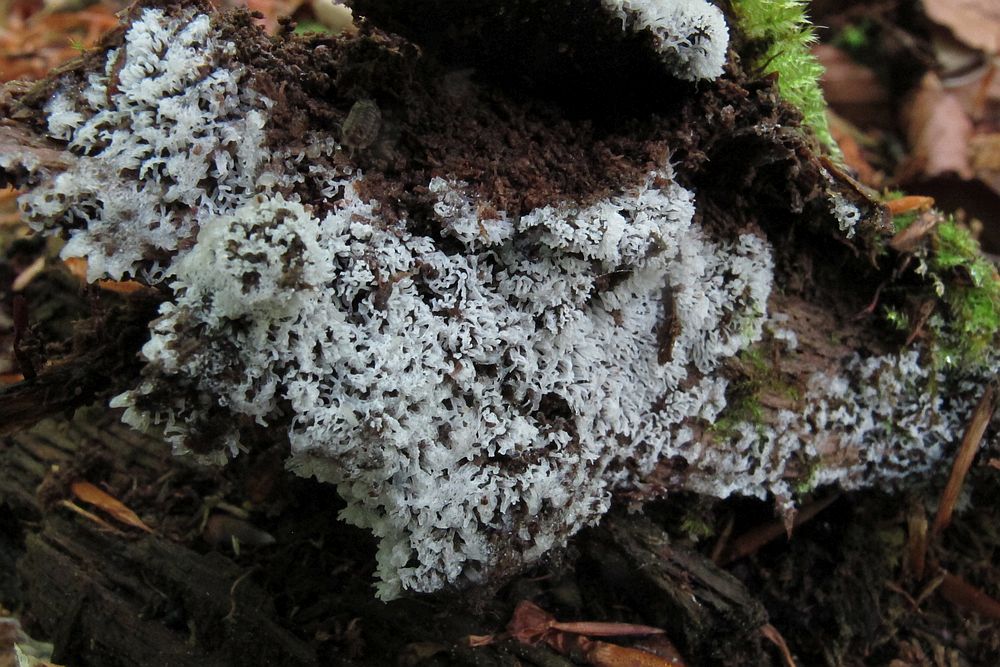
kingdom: Protozoa
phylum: Mycetozoa
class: Protosteliomycetes
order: Ceratiomyxales
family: Ceratiomyxaceae
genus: Ceratiomyxa
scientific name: Ceratiomyxa fruticulosa
